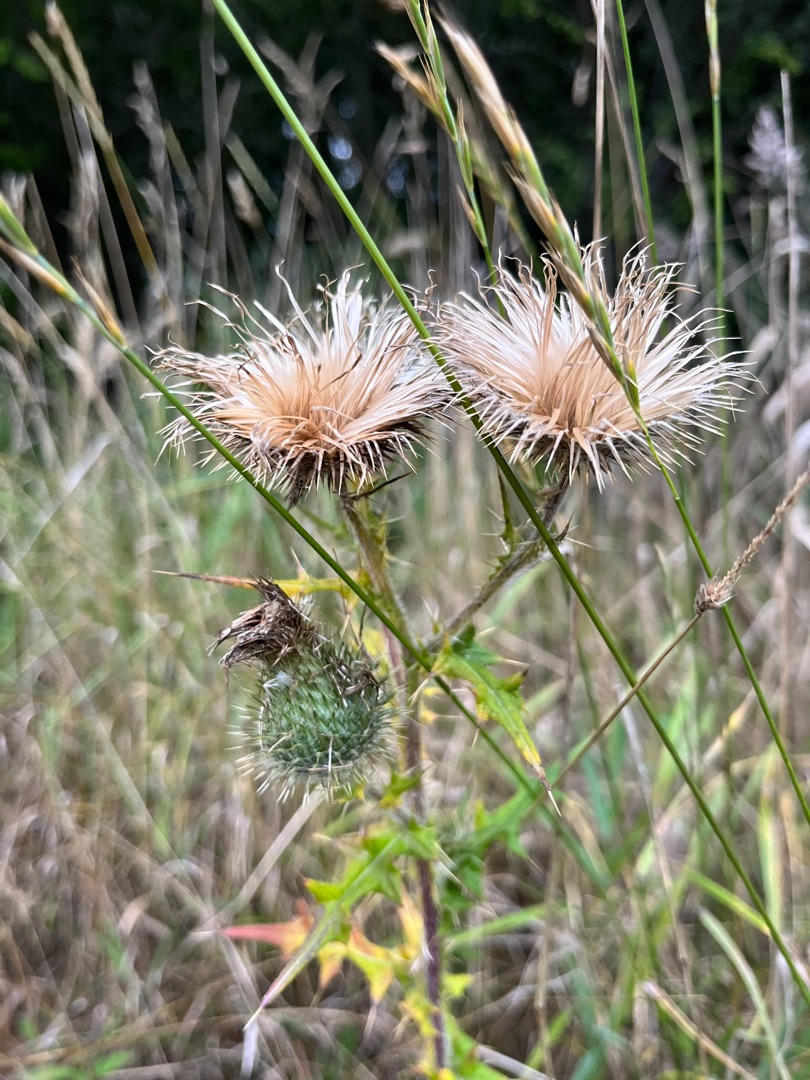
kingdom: Plantae
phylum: Tracheophyta
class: Magnoliopsida
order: Asterales
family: Asteraceae
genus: Cirsium
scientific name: Cirsium vulgare
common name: Horse-tidsel
